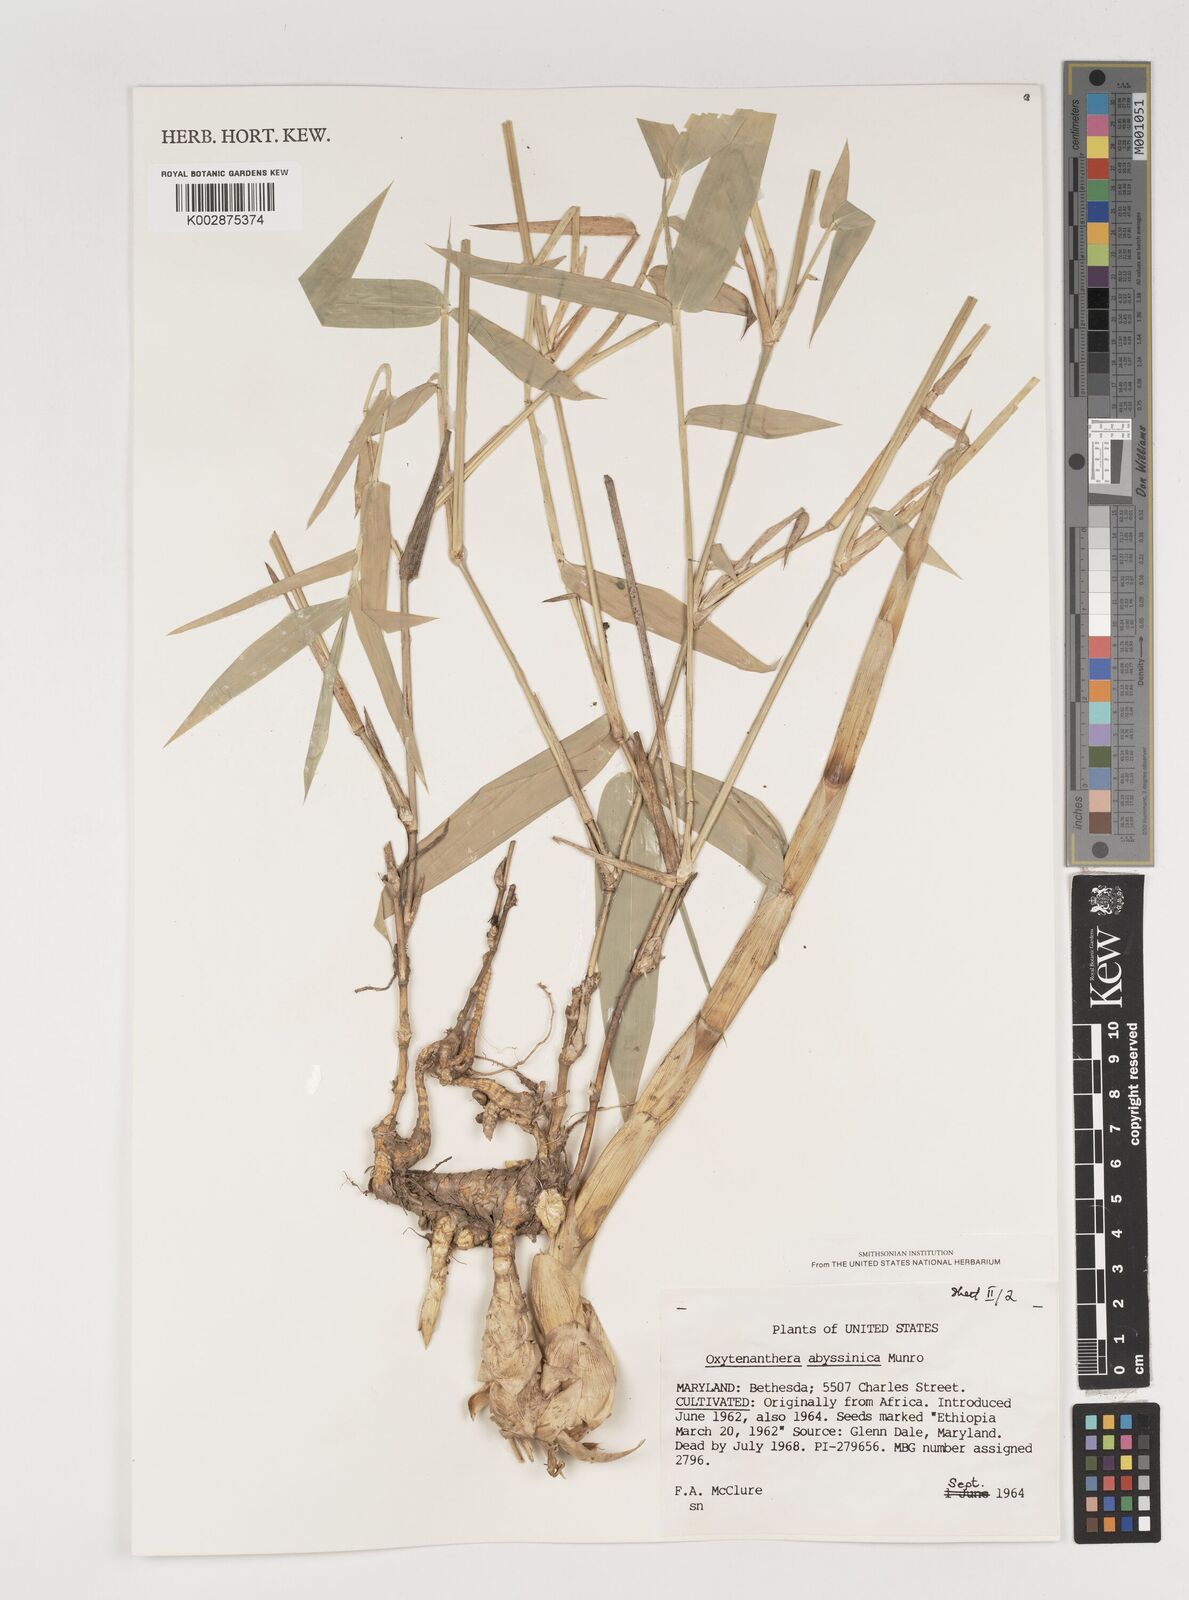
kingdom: Plantae
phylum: Tracheophyta
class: Liliopsida
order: Poales
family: Poaceae
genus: Oxytenanthera
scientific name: Oxytenanthera abyssinica
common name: Wine bamboo
